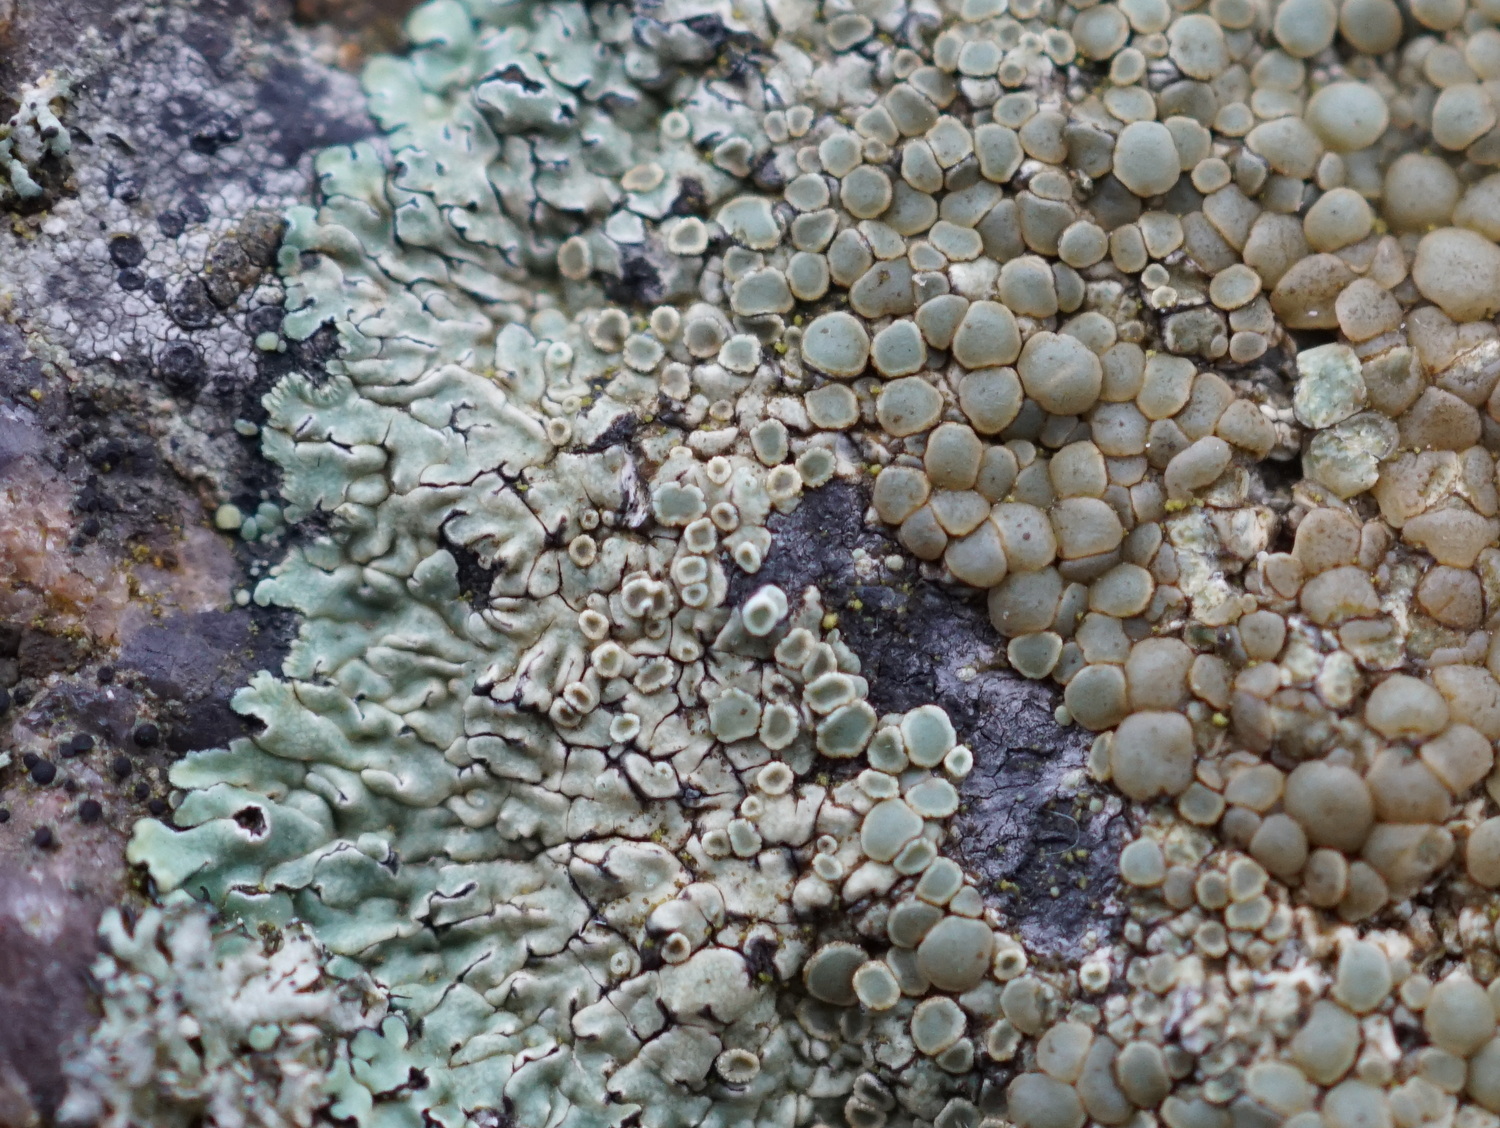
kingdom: Fungi
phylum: Ascomycota
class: Lecanoromycetes
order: Lecanorales
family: Lecanoraceae
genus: Protoparmeliopsis
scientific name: Protoparmeliopsis muralis
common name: randfliget kantskivelav
